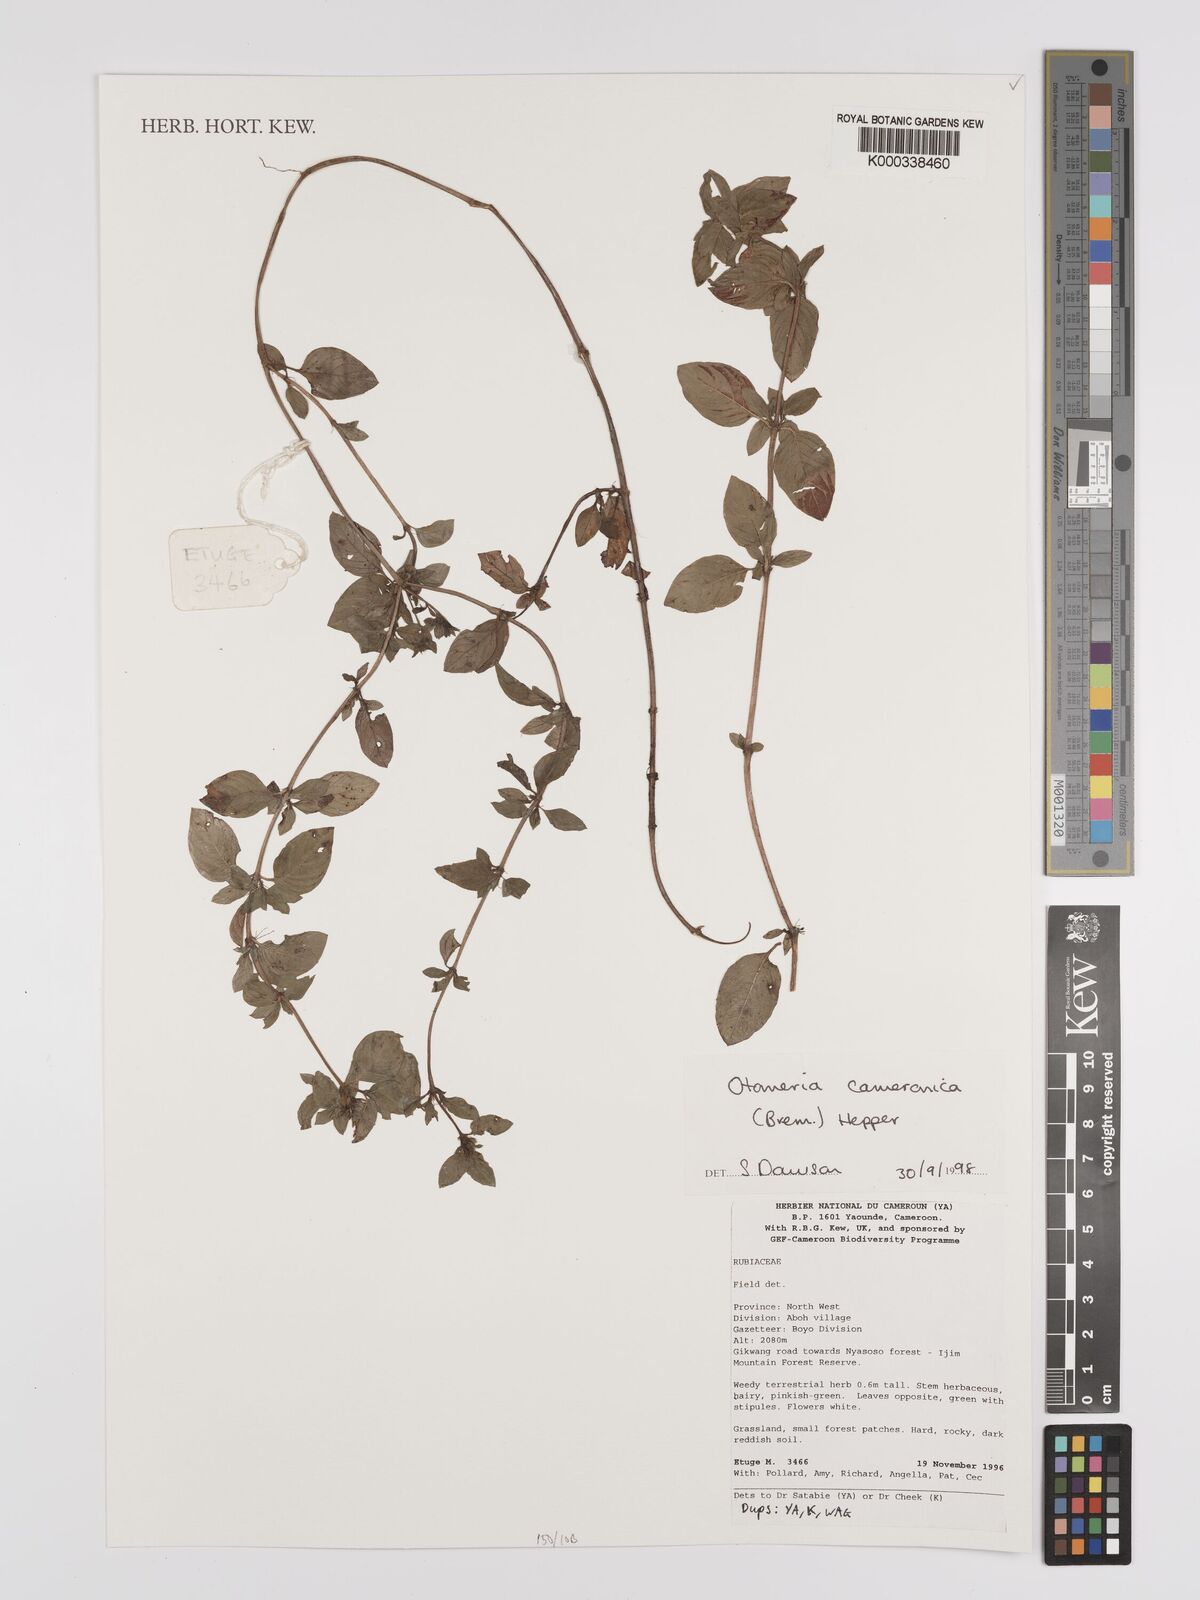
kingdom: Plantae
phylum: Tracheophyta
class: Magnoliopsida
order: Gentianales
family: Rubiaceae
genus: Otomeria
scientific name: Otomeria cameronica
